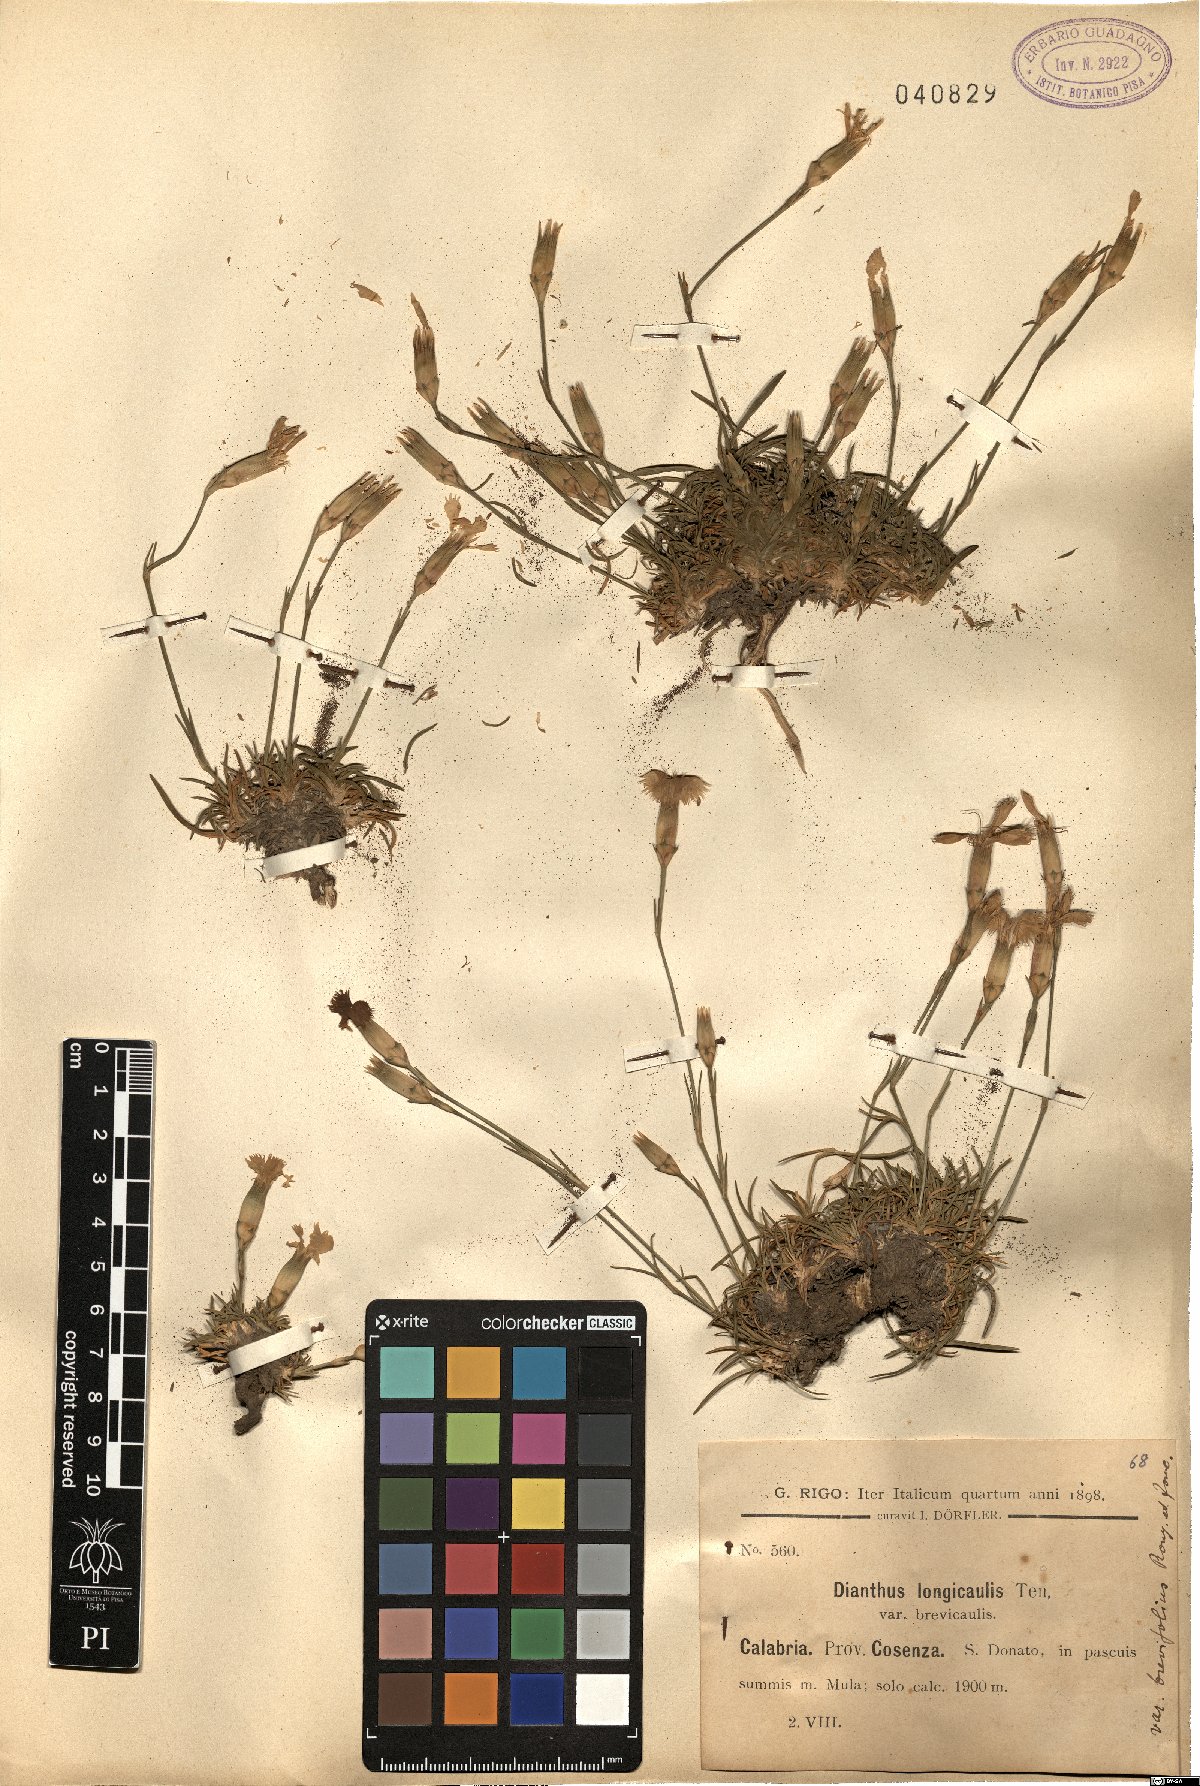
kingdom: Plantae
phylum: Tracheophyta
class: Magnoliopsida
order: Caryophyllales
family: Caryophyllaceae
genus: Dianthus
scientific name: Dianthus virgineus
